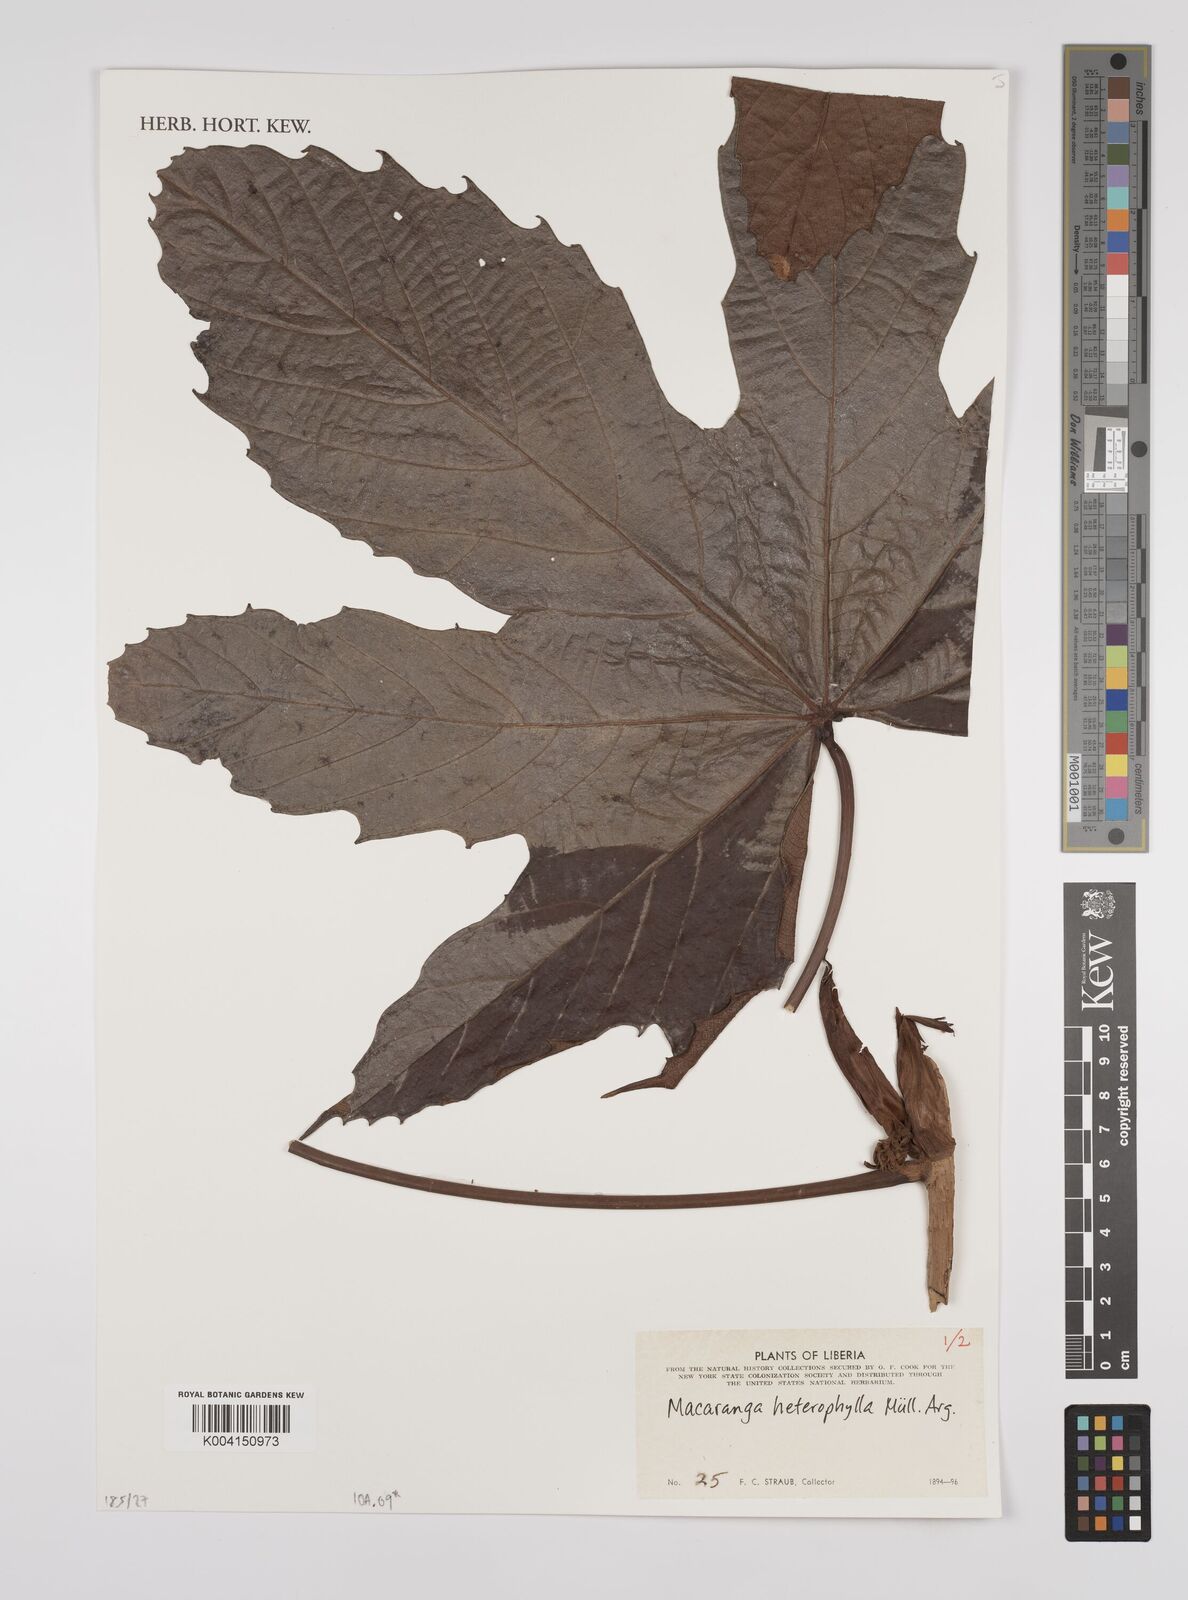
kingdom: Plantae
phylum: Tracheophyta
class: Magnoliopsida
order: Malpighiales
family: Euphorbiaceae
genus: Macaranga
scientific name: Macaranga heterophylla
